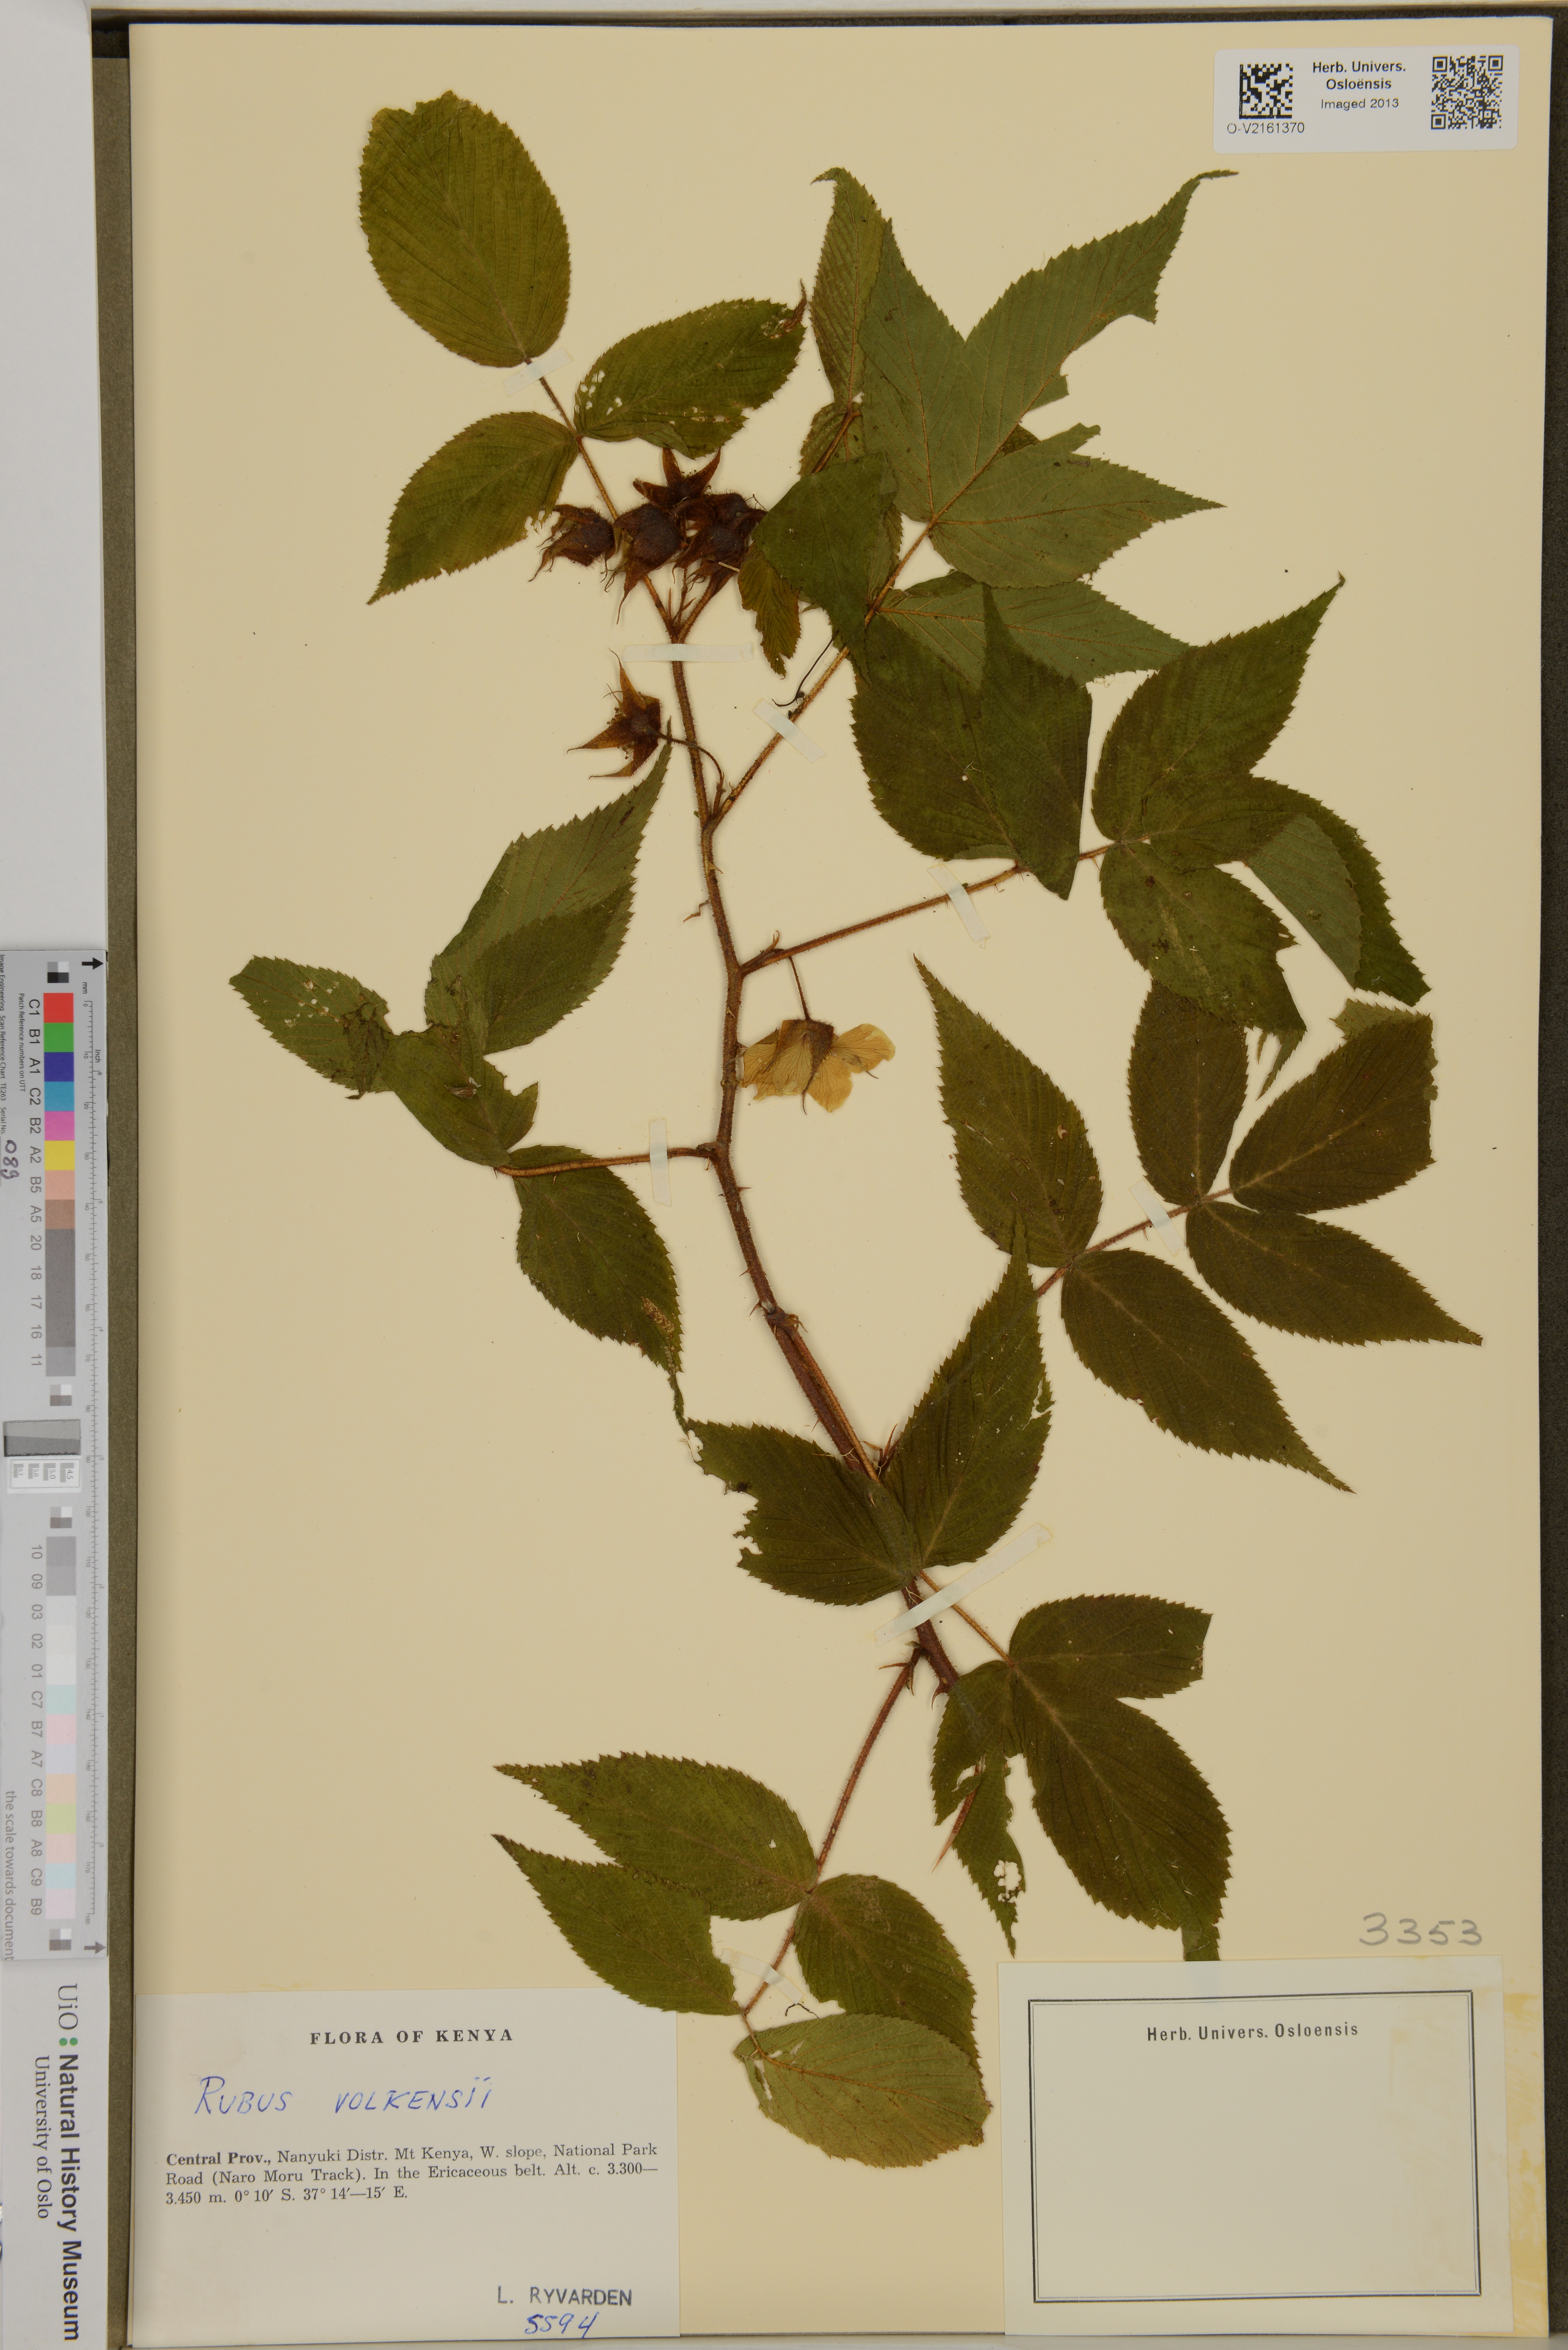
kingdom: Plantae
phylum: Tracheophyta
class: Magnoliopsida
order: Rosales
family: Rosaceae
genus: Rubus
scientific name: Rubus volkensii
